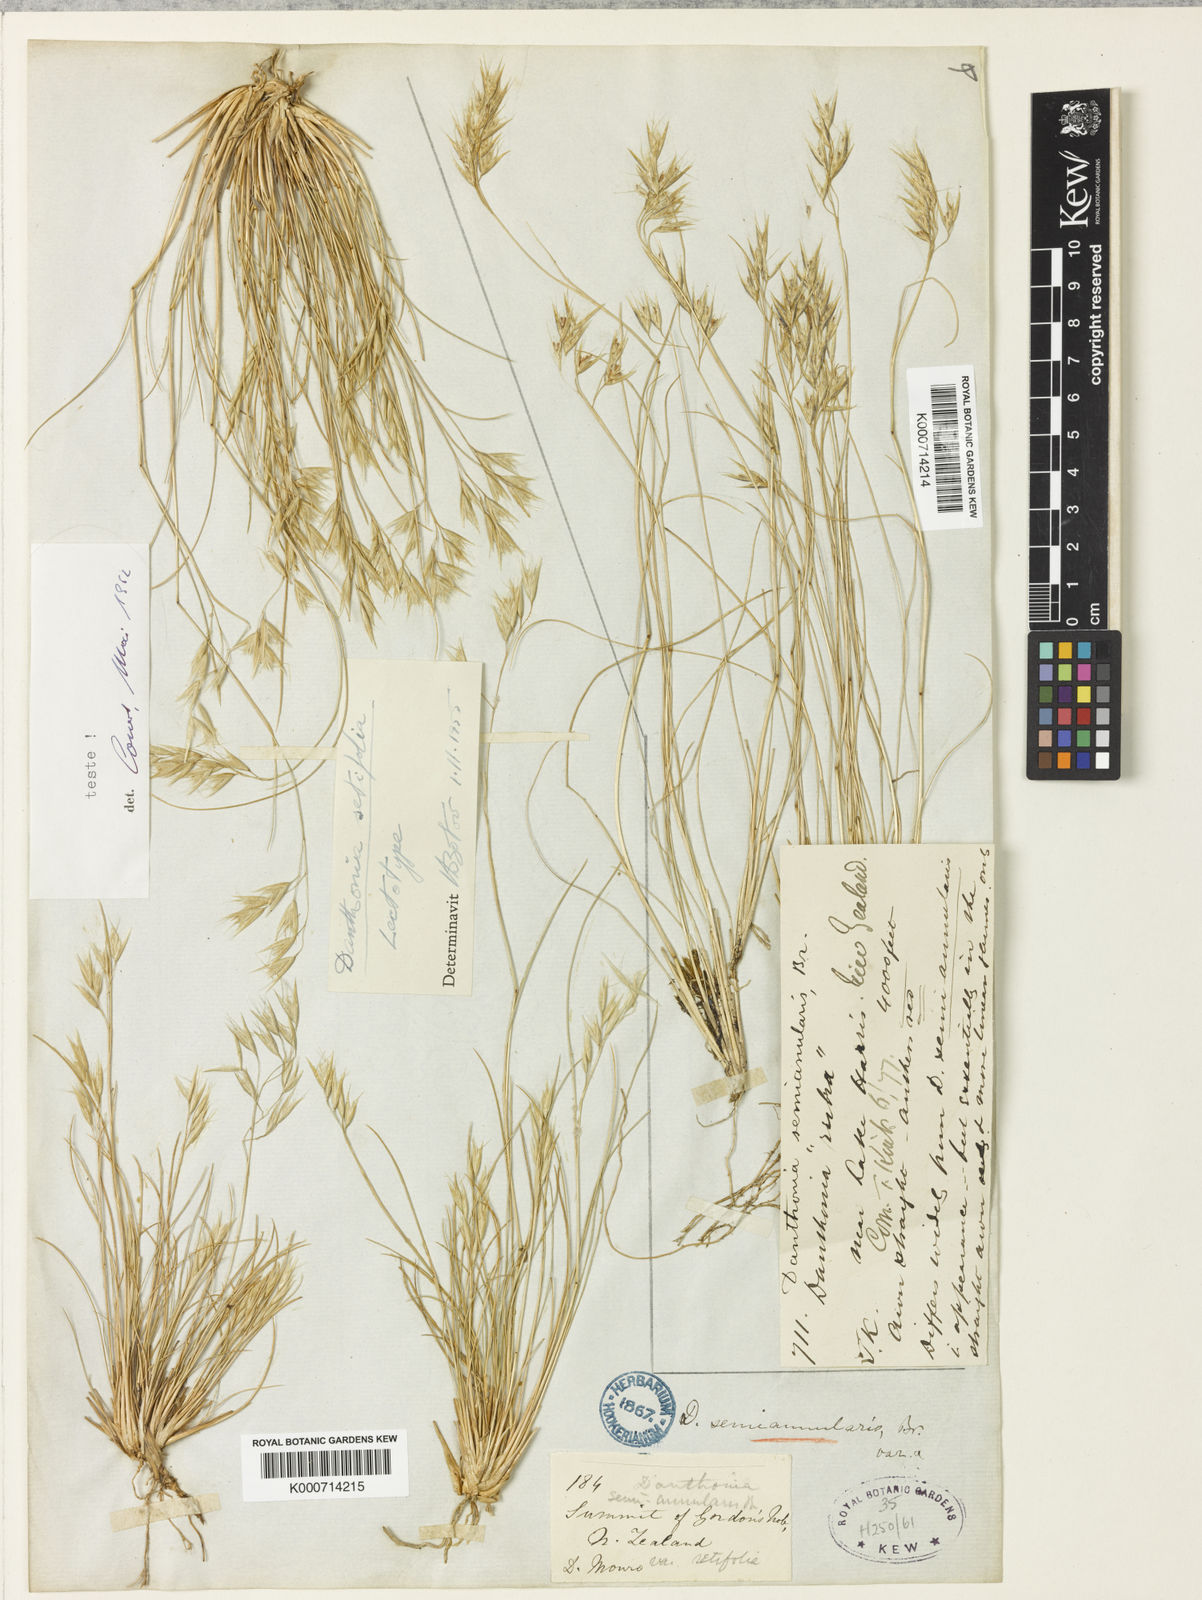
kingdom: Plantae
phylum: Tracheophyta
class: Liliopsida
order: Poales
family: Poaceae
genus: Rytidosperma
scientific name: Rytidosperma setifolium
